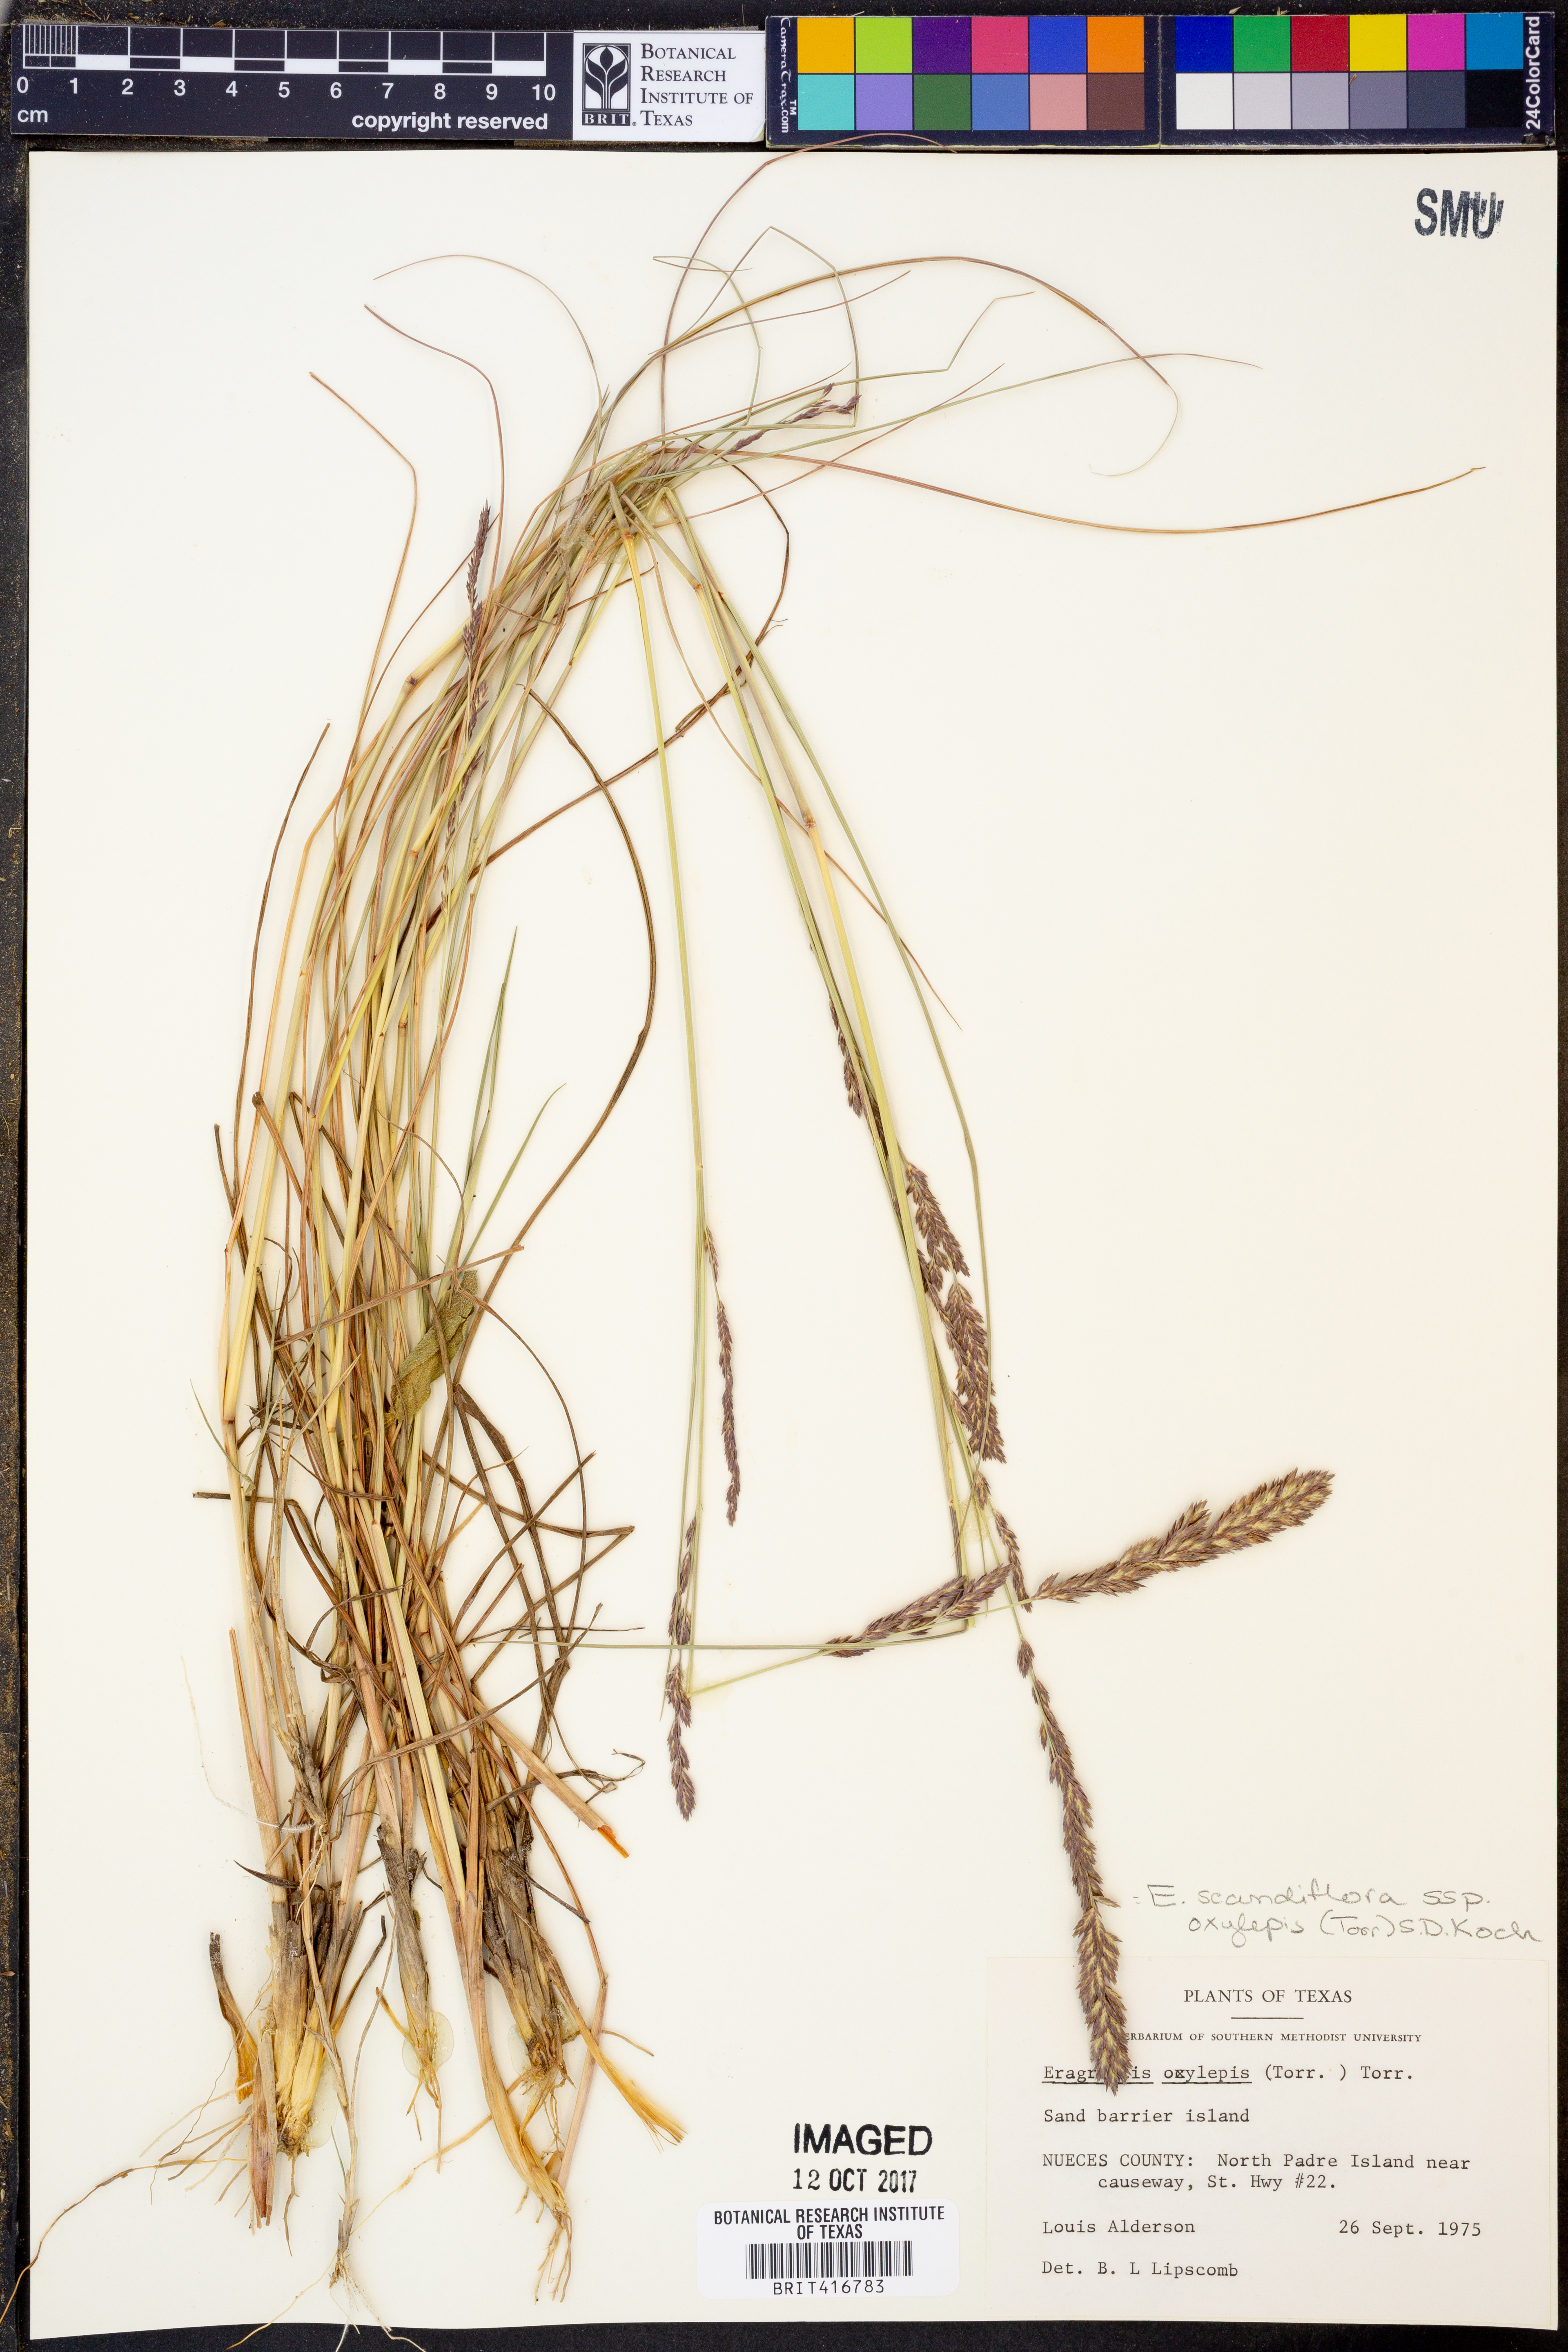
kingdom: Plantae
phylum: Tracheophyta
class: Liliopsida
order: Poales
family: Poaceae
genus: Eragrostis
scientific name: Eragrostis secundiflora
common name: Red love grass
